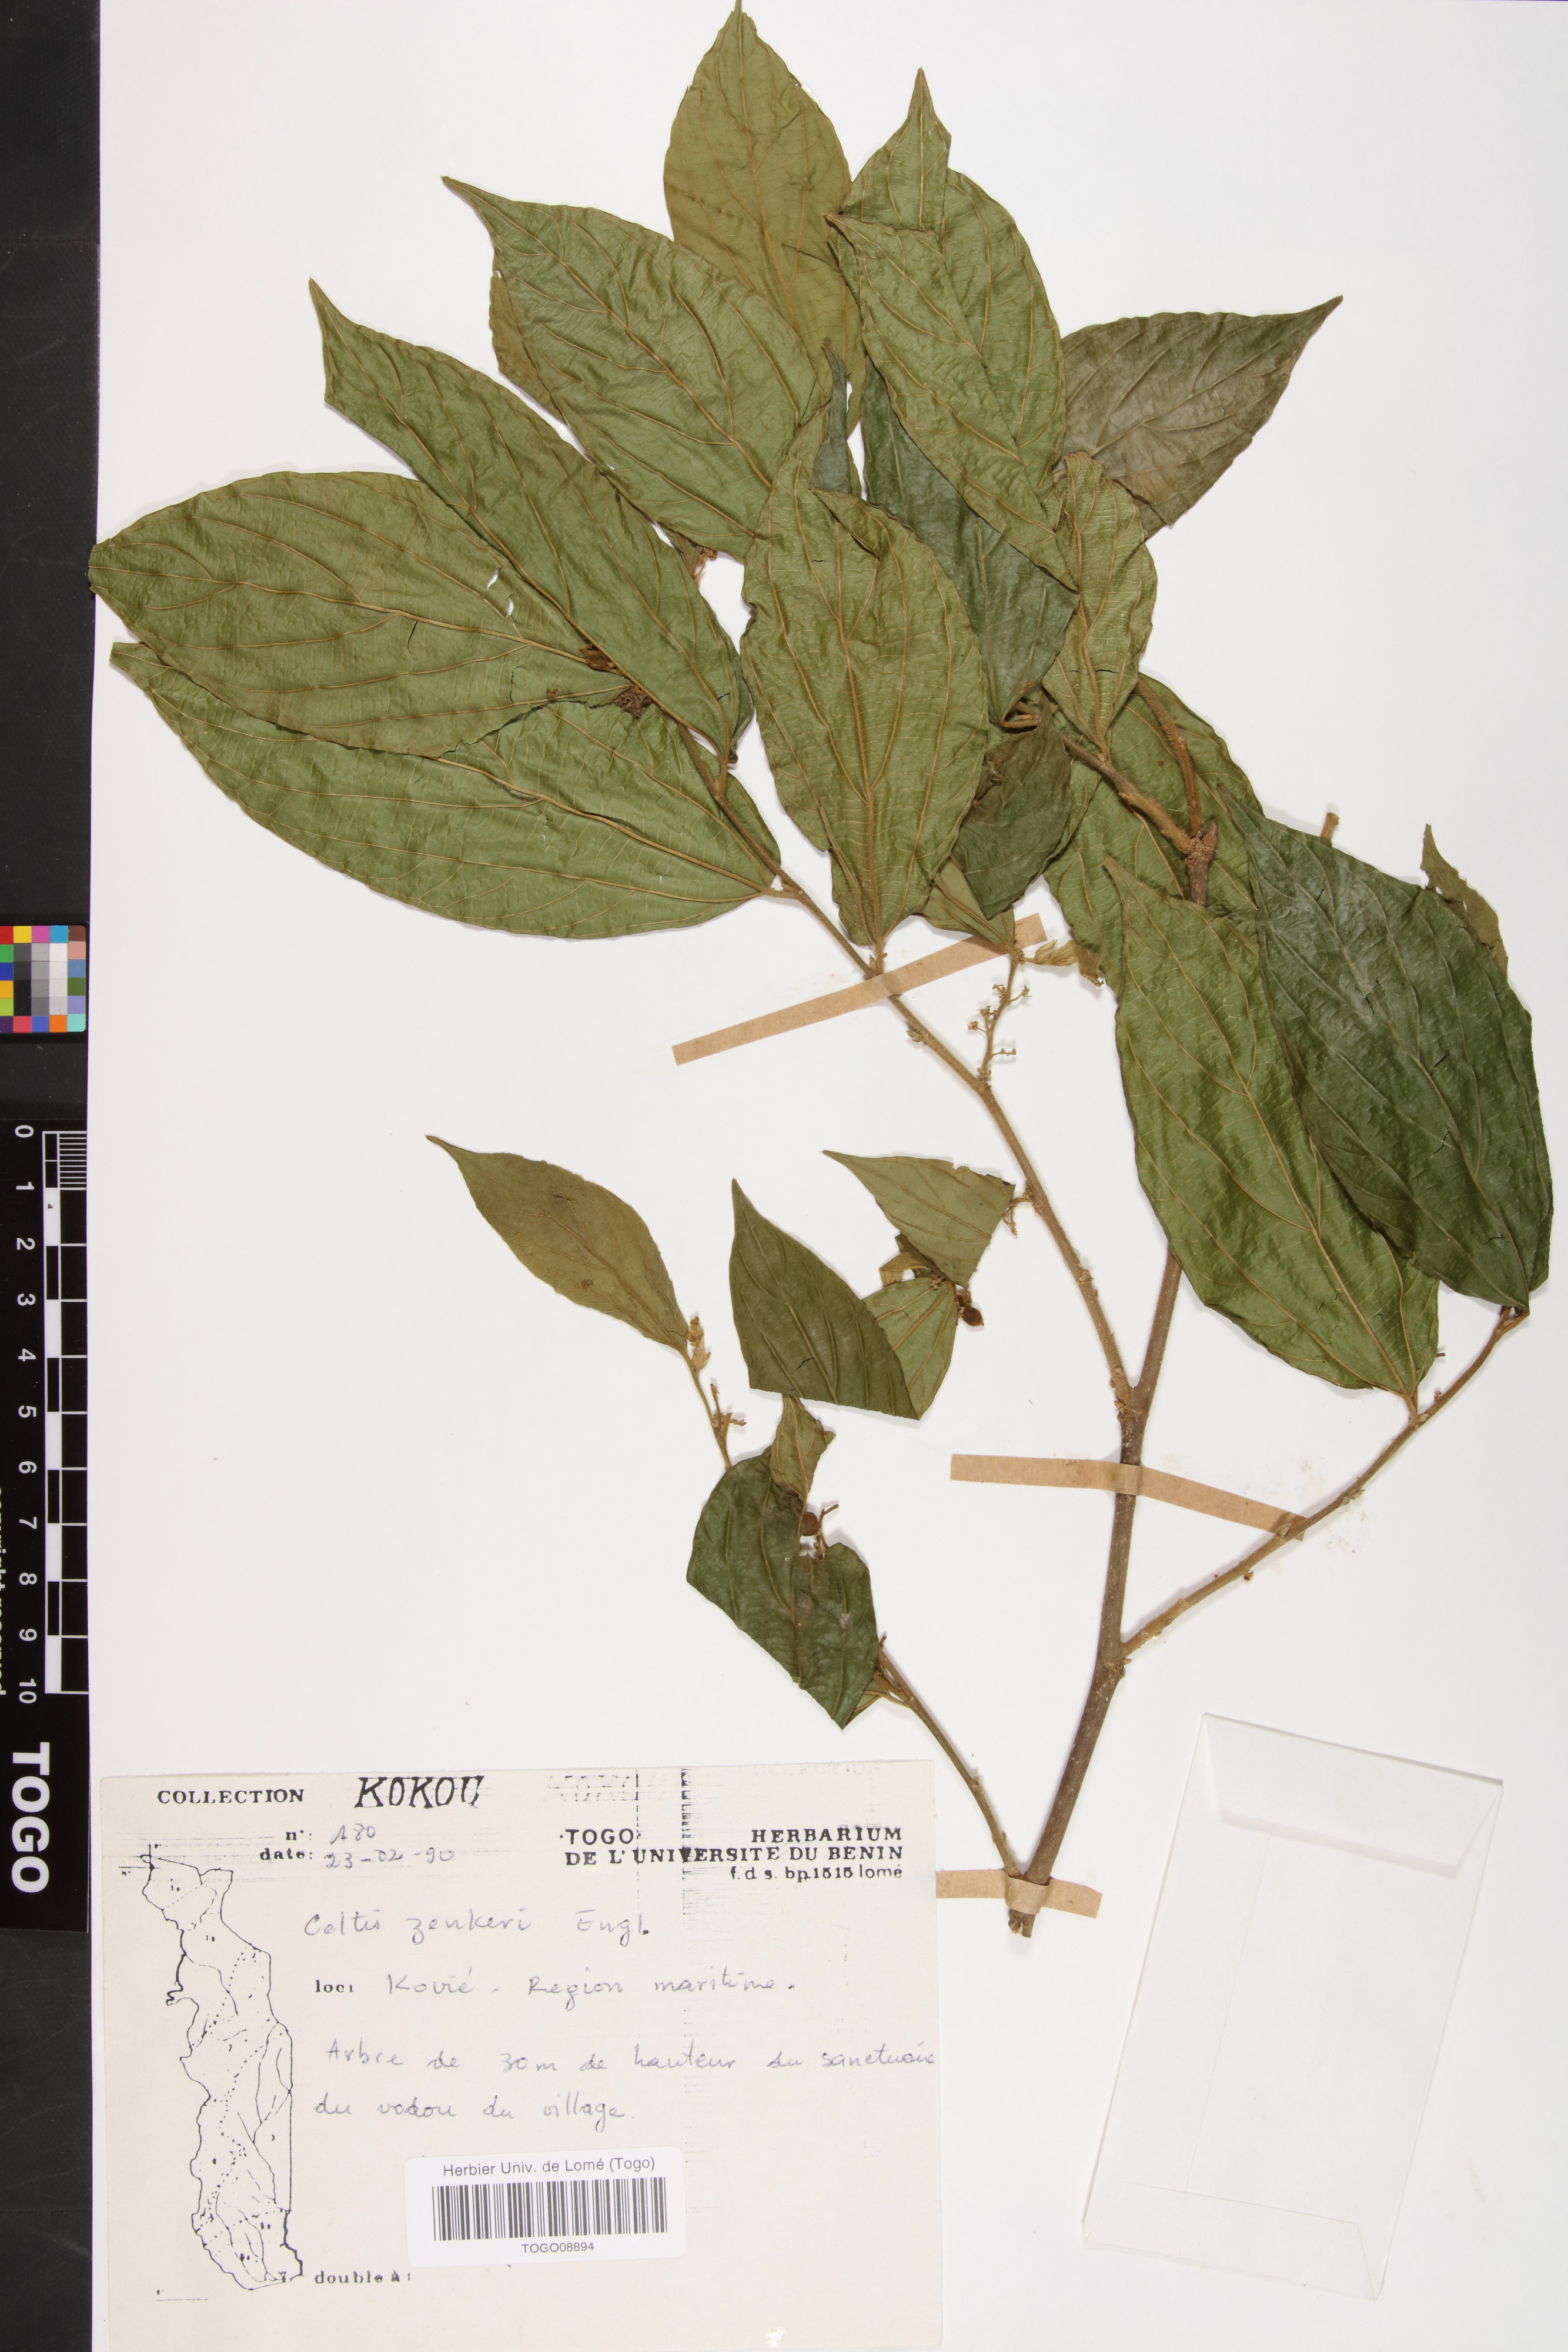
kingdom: Plantae
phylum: Tracheophyta
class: Magnoliopsida
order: Rosales
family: Cannabaceae
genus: Celtis
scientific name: Celtis zenkeri
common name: African celtis
